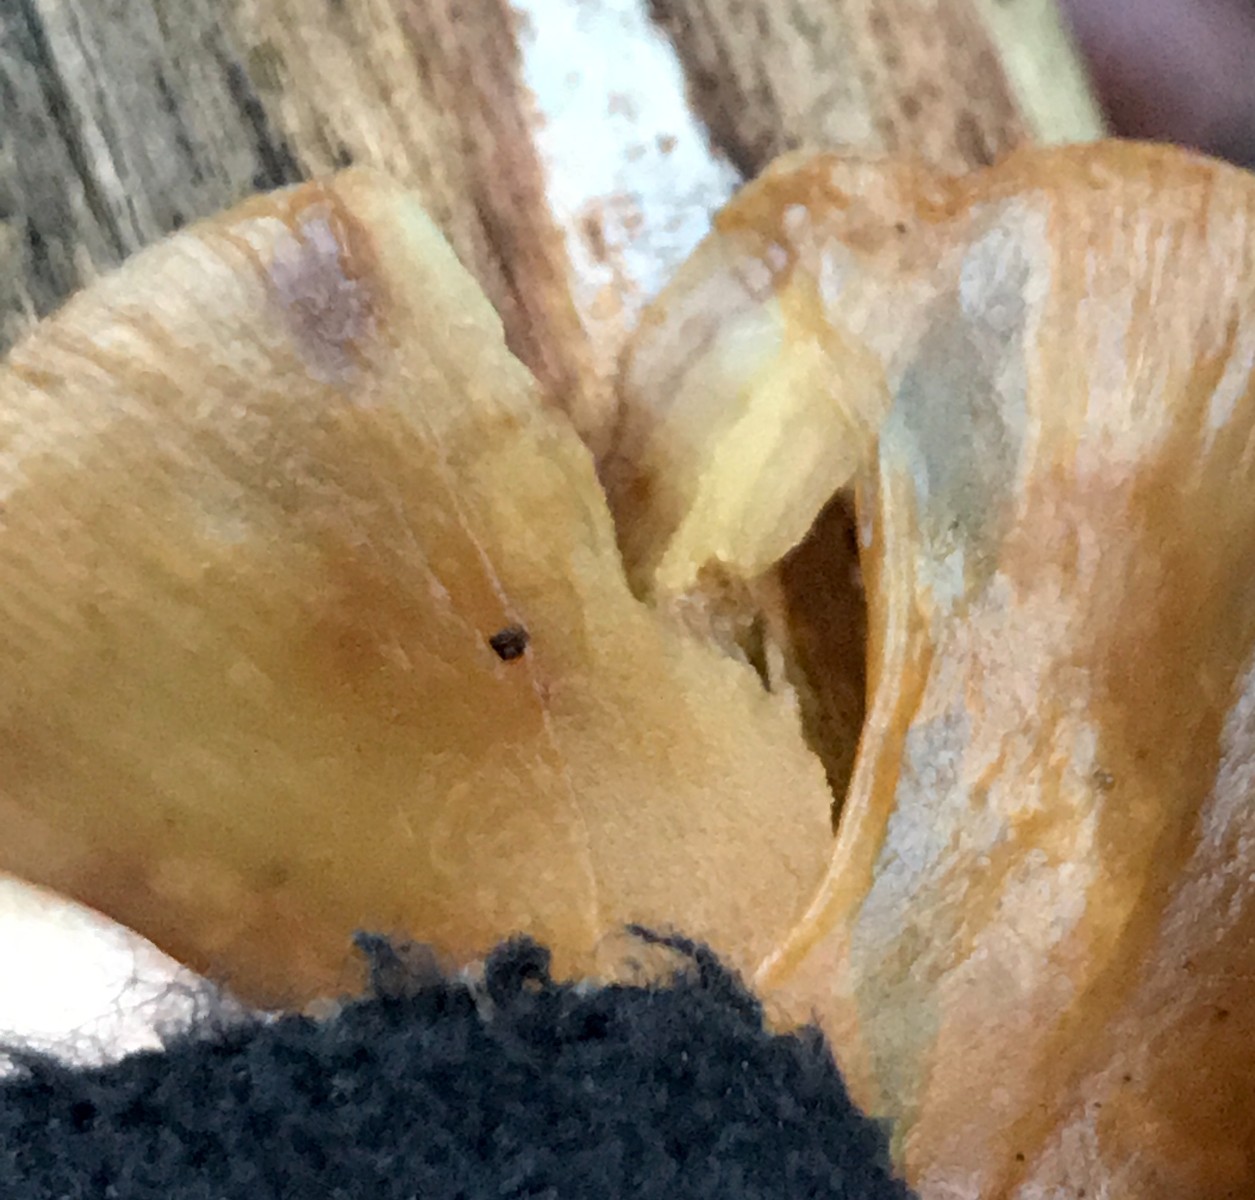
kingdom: Fungi
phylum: Basidiomycota
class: Agaricomycetes
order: Agaricales
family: Crepidotaceae
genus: Crepidotus
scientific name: Crepidotus mollis
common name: blød muslingesvamp
